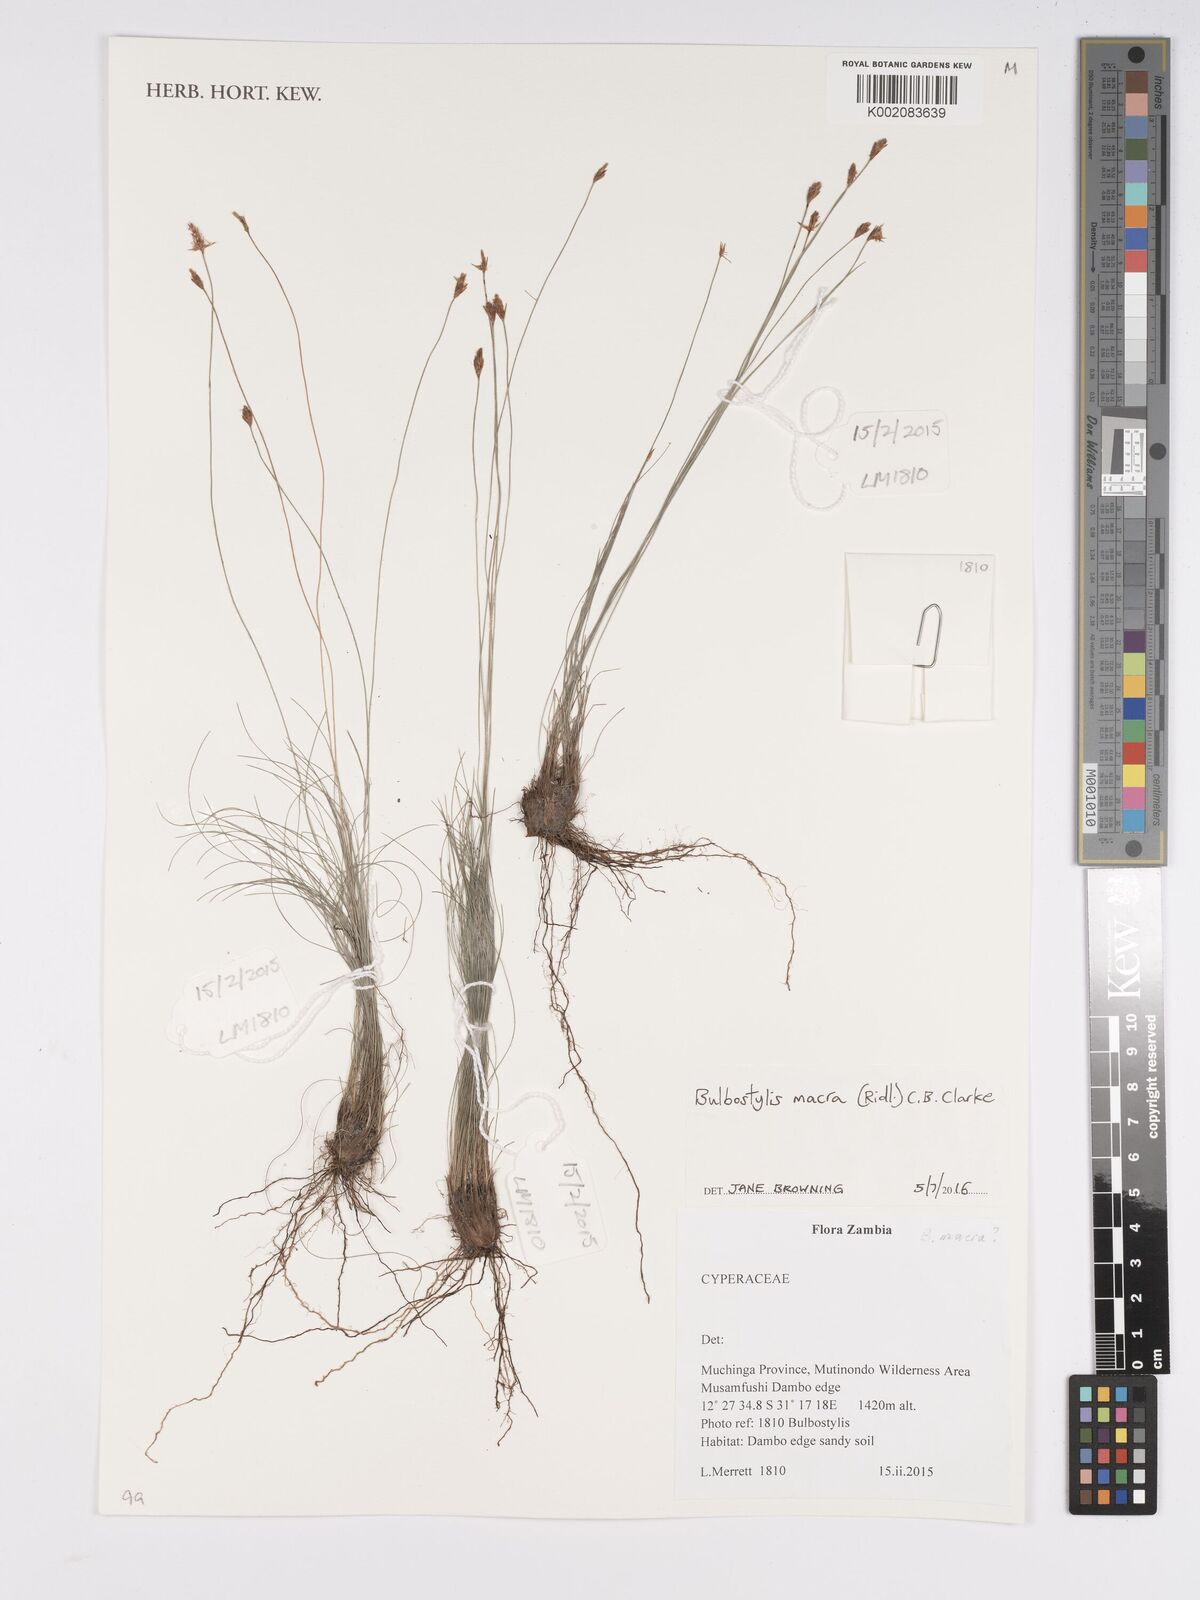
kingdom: Plantae
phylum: Tracheophyta
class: Liliopsida
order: Poales
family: Cyperaceae
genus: Bulbostylis
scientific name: Bulbostylis macra
